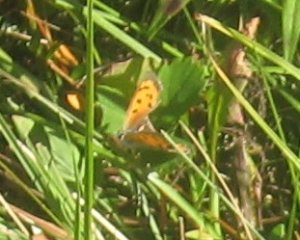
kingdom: Animalia
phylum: Arthropoda
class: Insecta
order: Lepidoptera
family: Lycaenidae
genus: Lycaena
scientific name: Lycaena phlaeas
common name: American Copper
